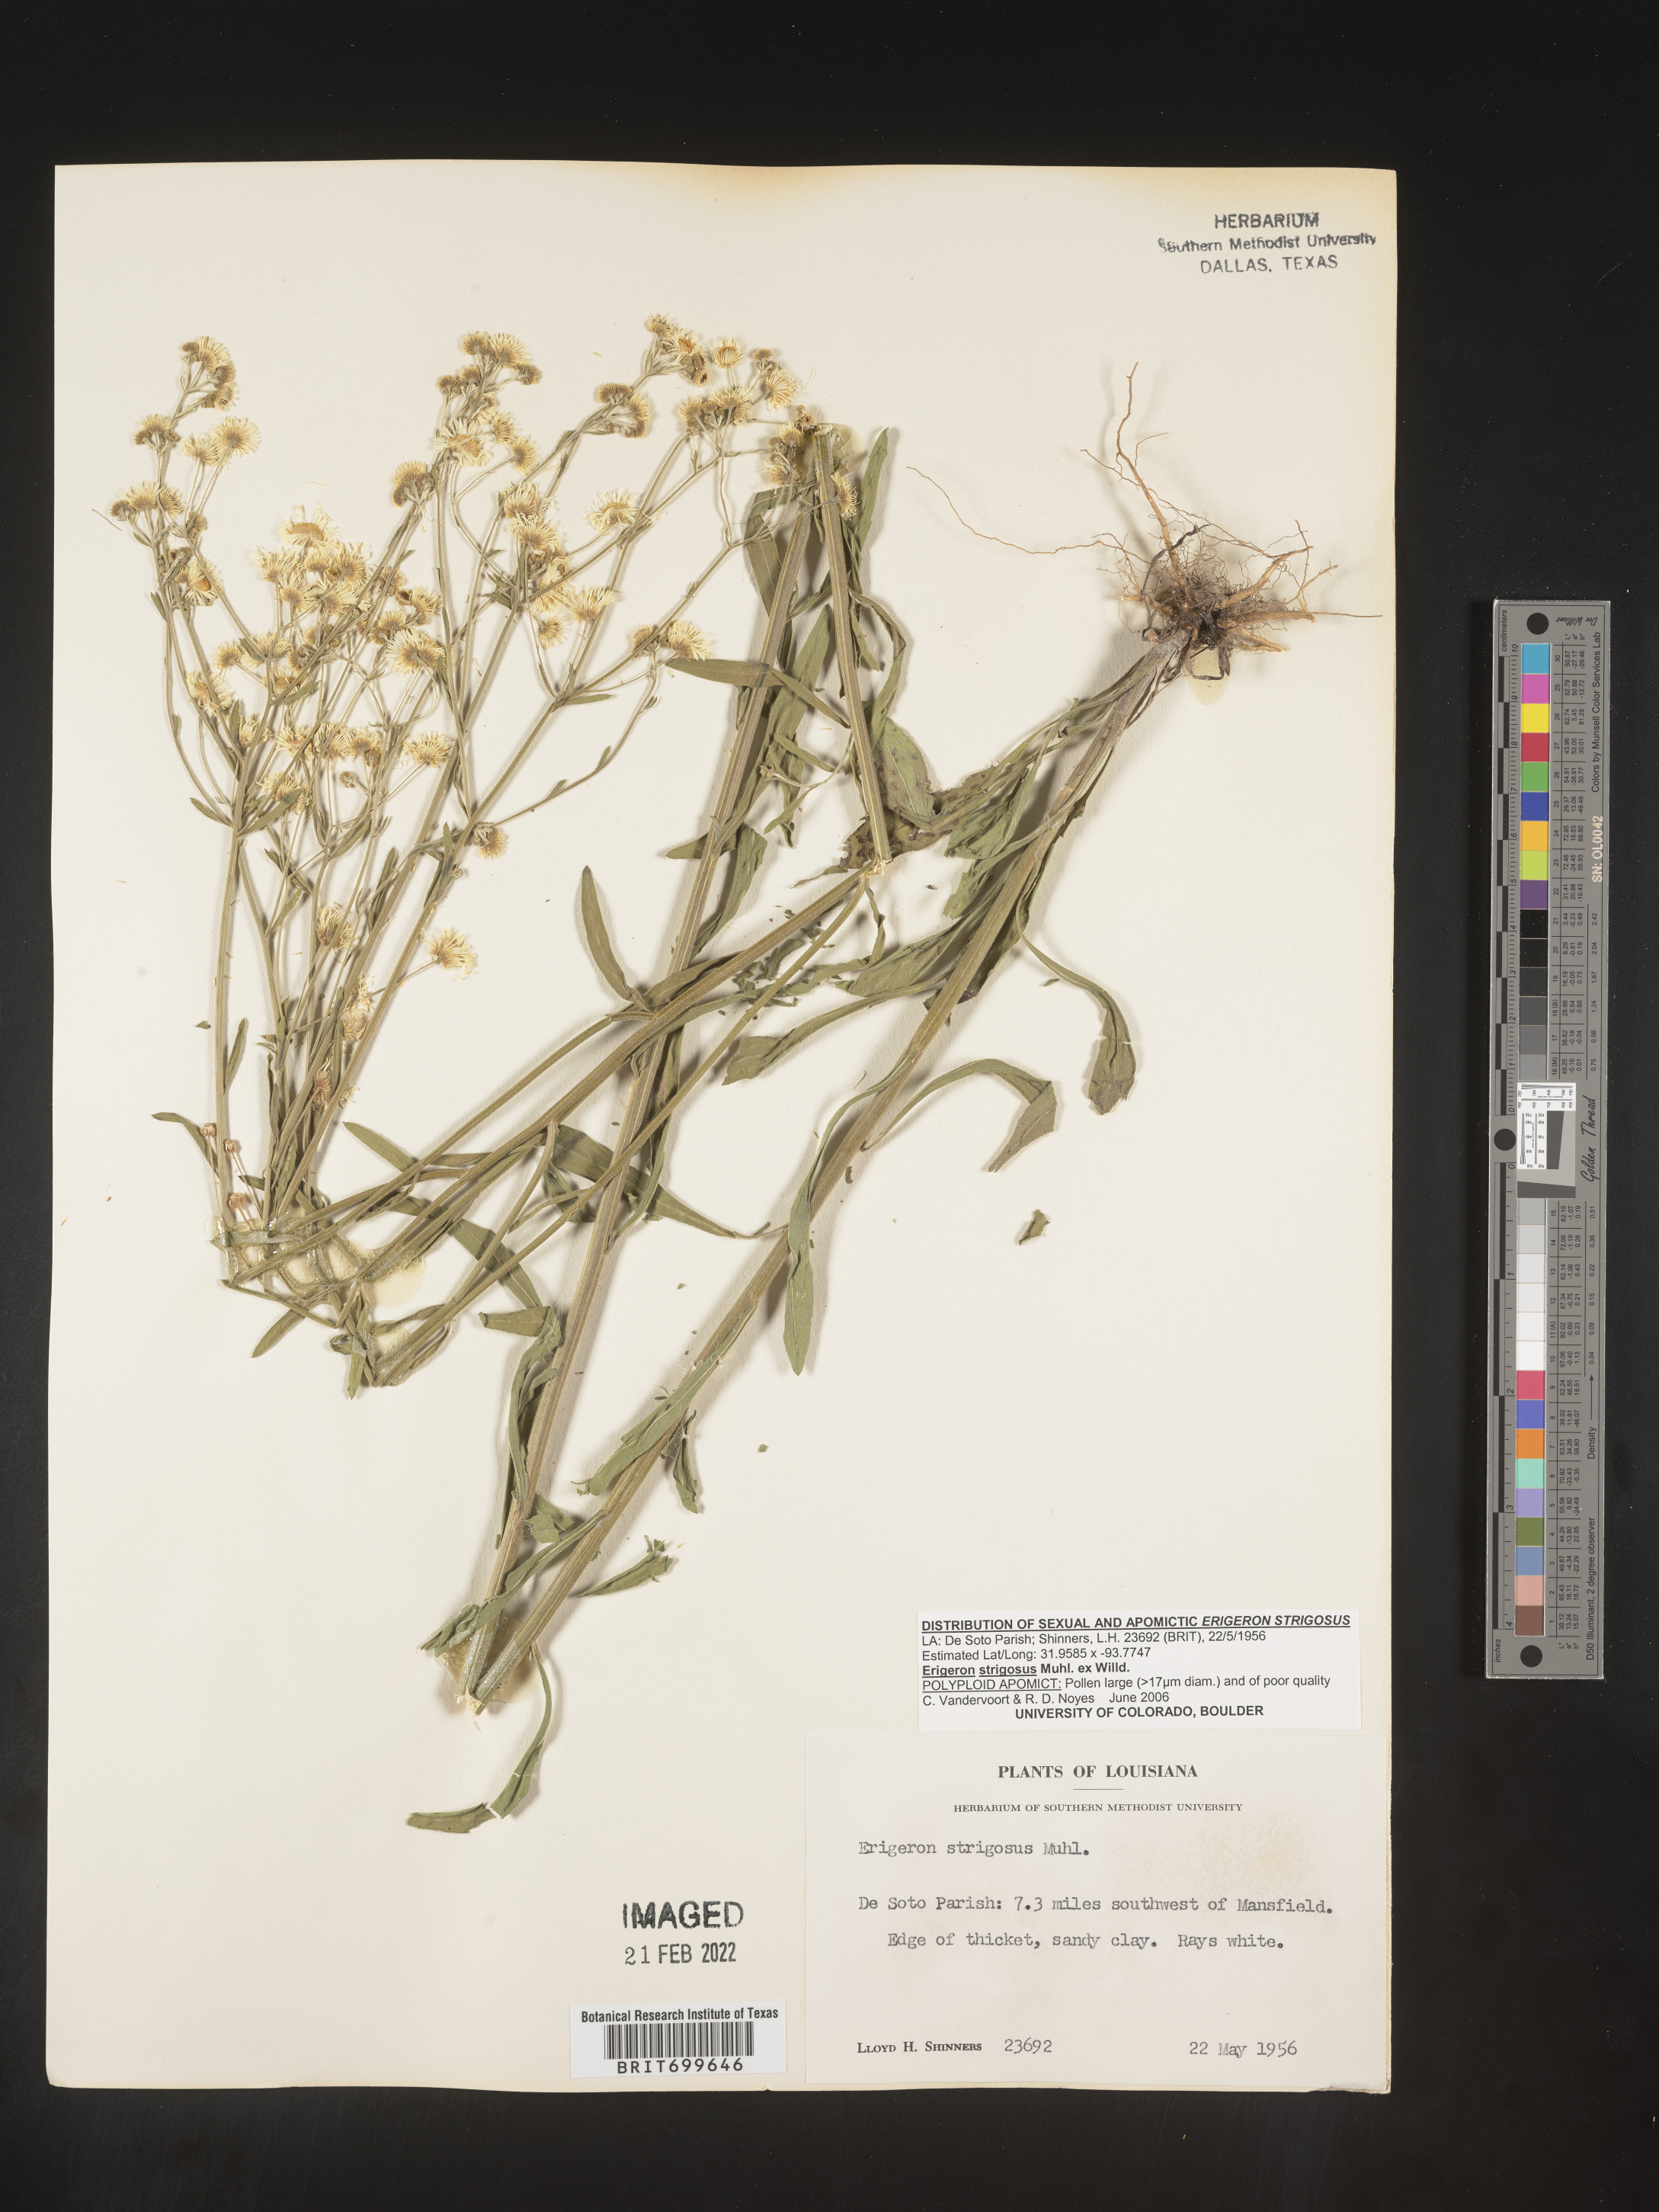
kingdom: Plantae
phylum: Tracheophyta
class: Magnoliopsida
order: Asterales
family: Asteraceae
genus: Erigeron
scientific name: Erigeron strigosus
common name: Common eastern fleabane
